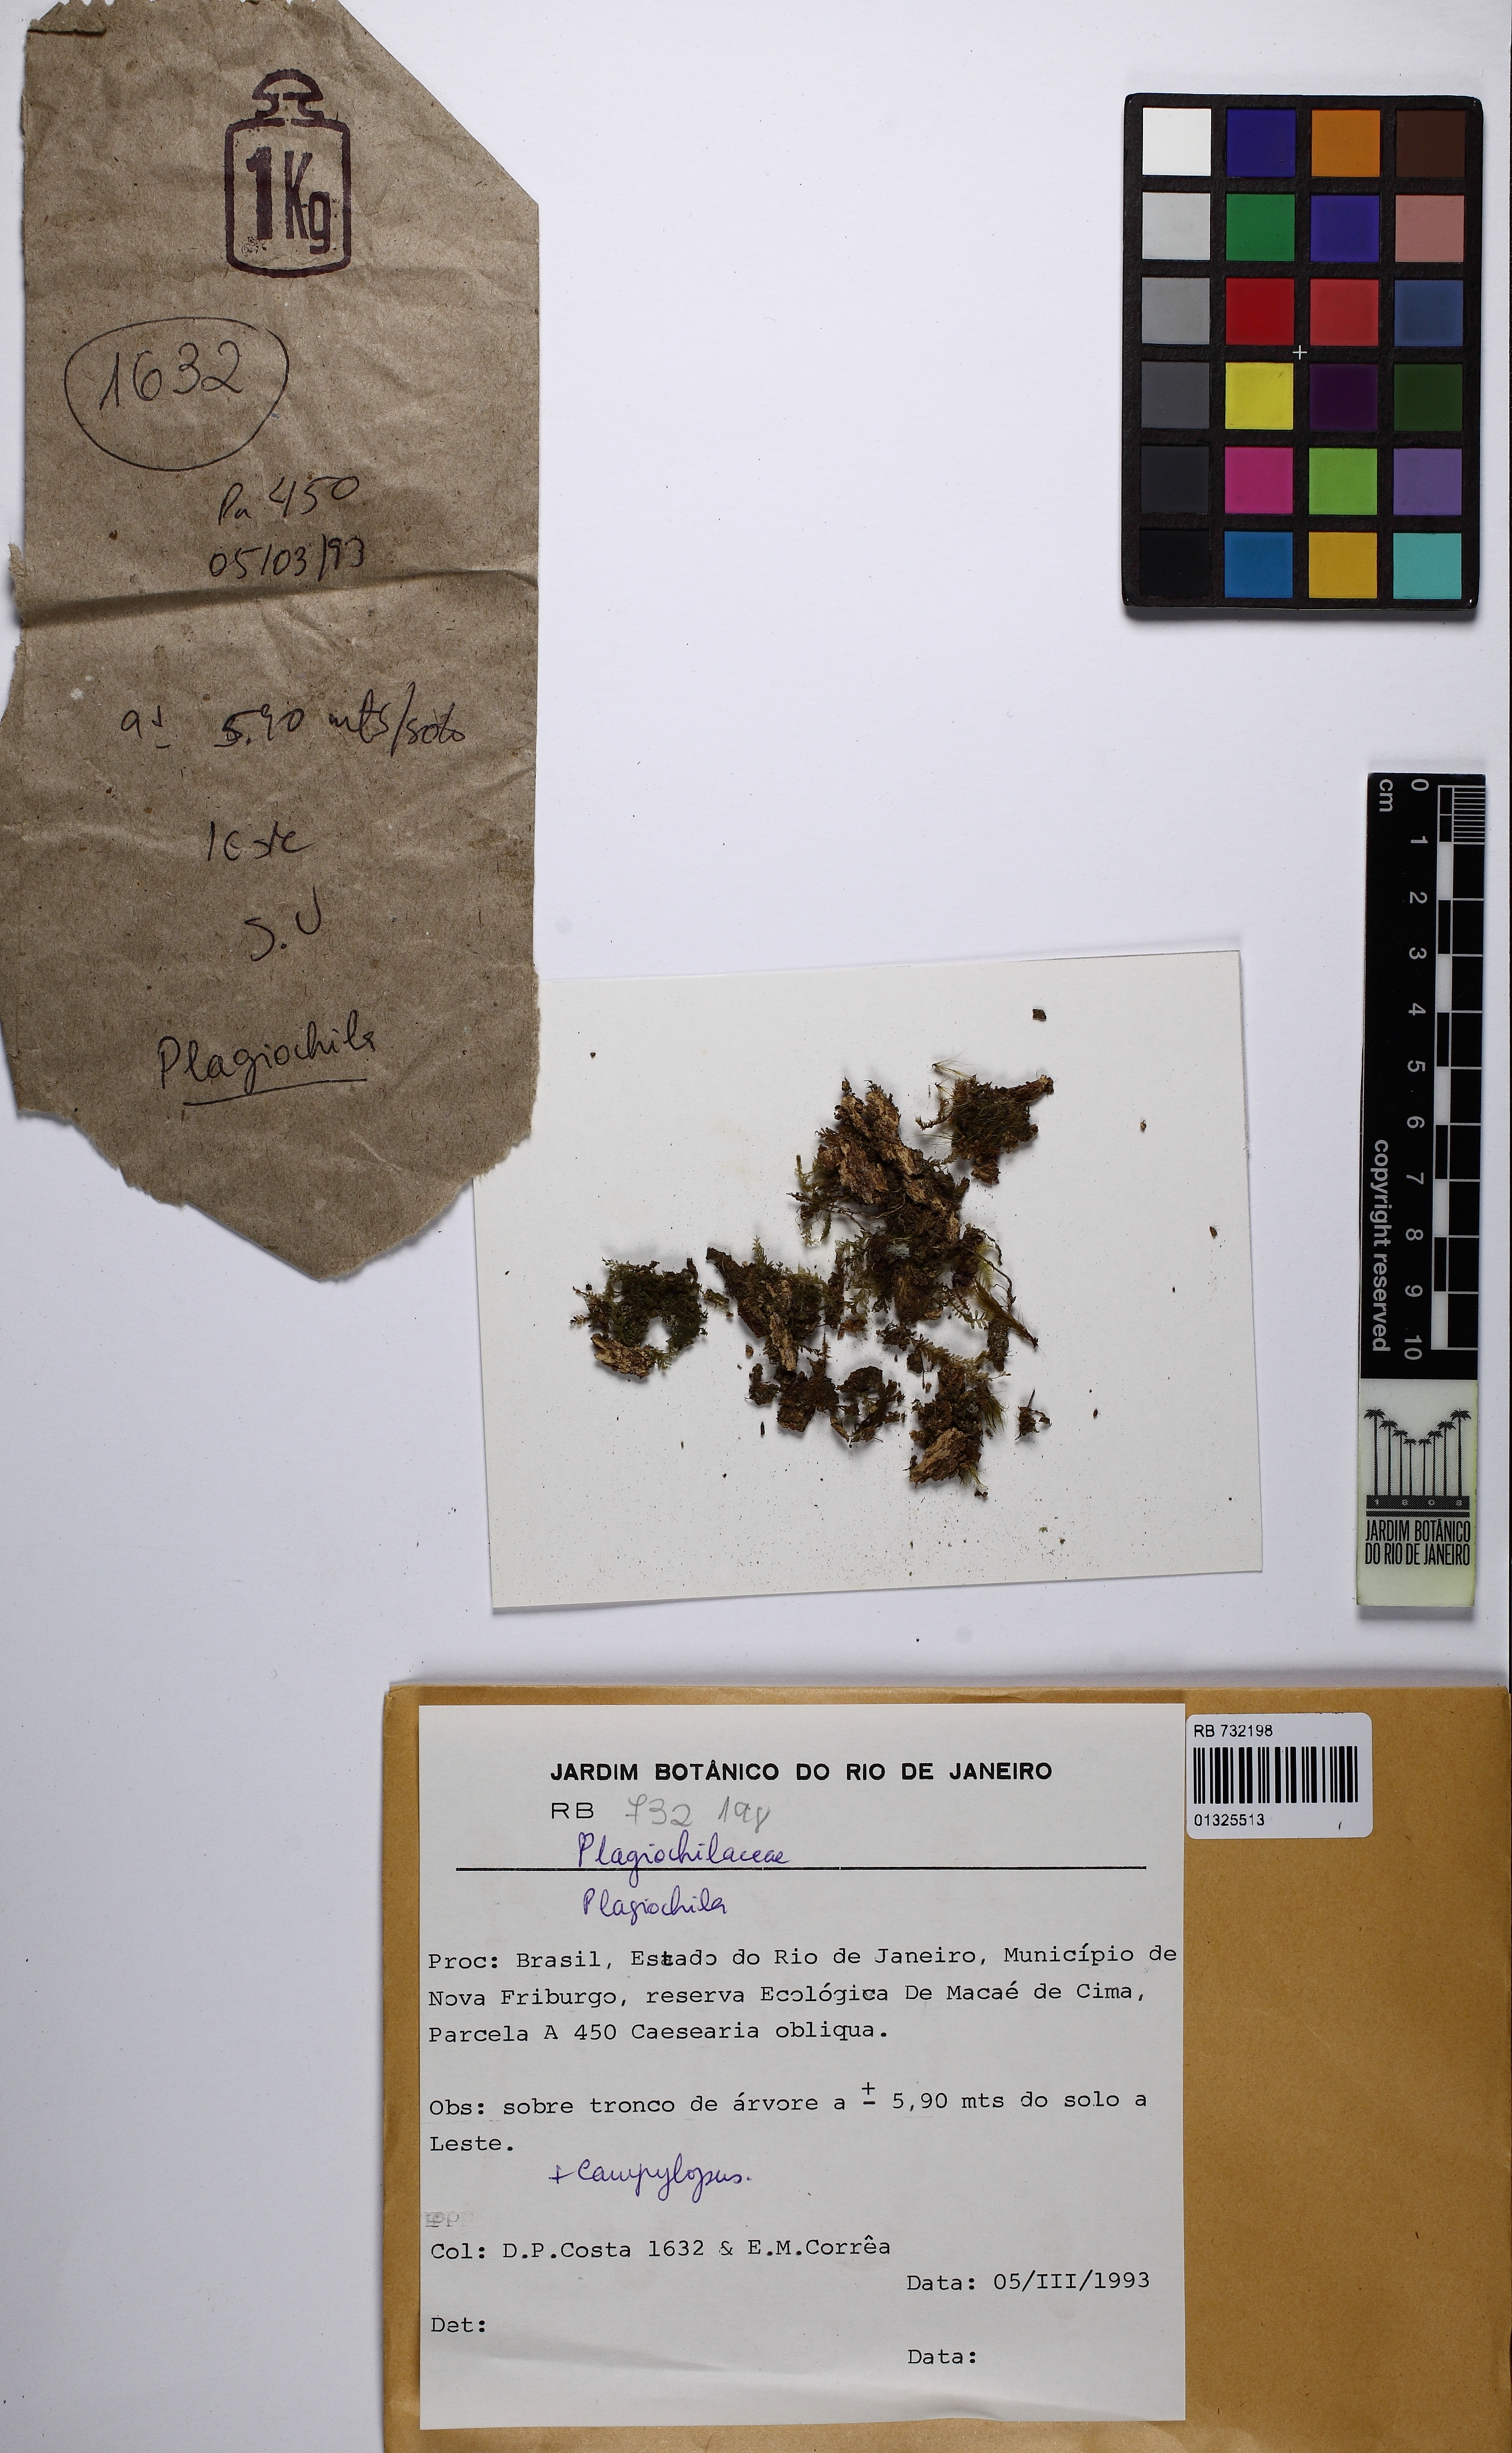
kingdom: Plantae
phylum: Marchantiophyta
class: Jungermanniopsida
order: Jungermanniales
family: Plagiochilaceae
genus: Plagiochila
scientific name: Plagiochila
